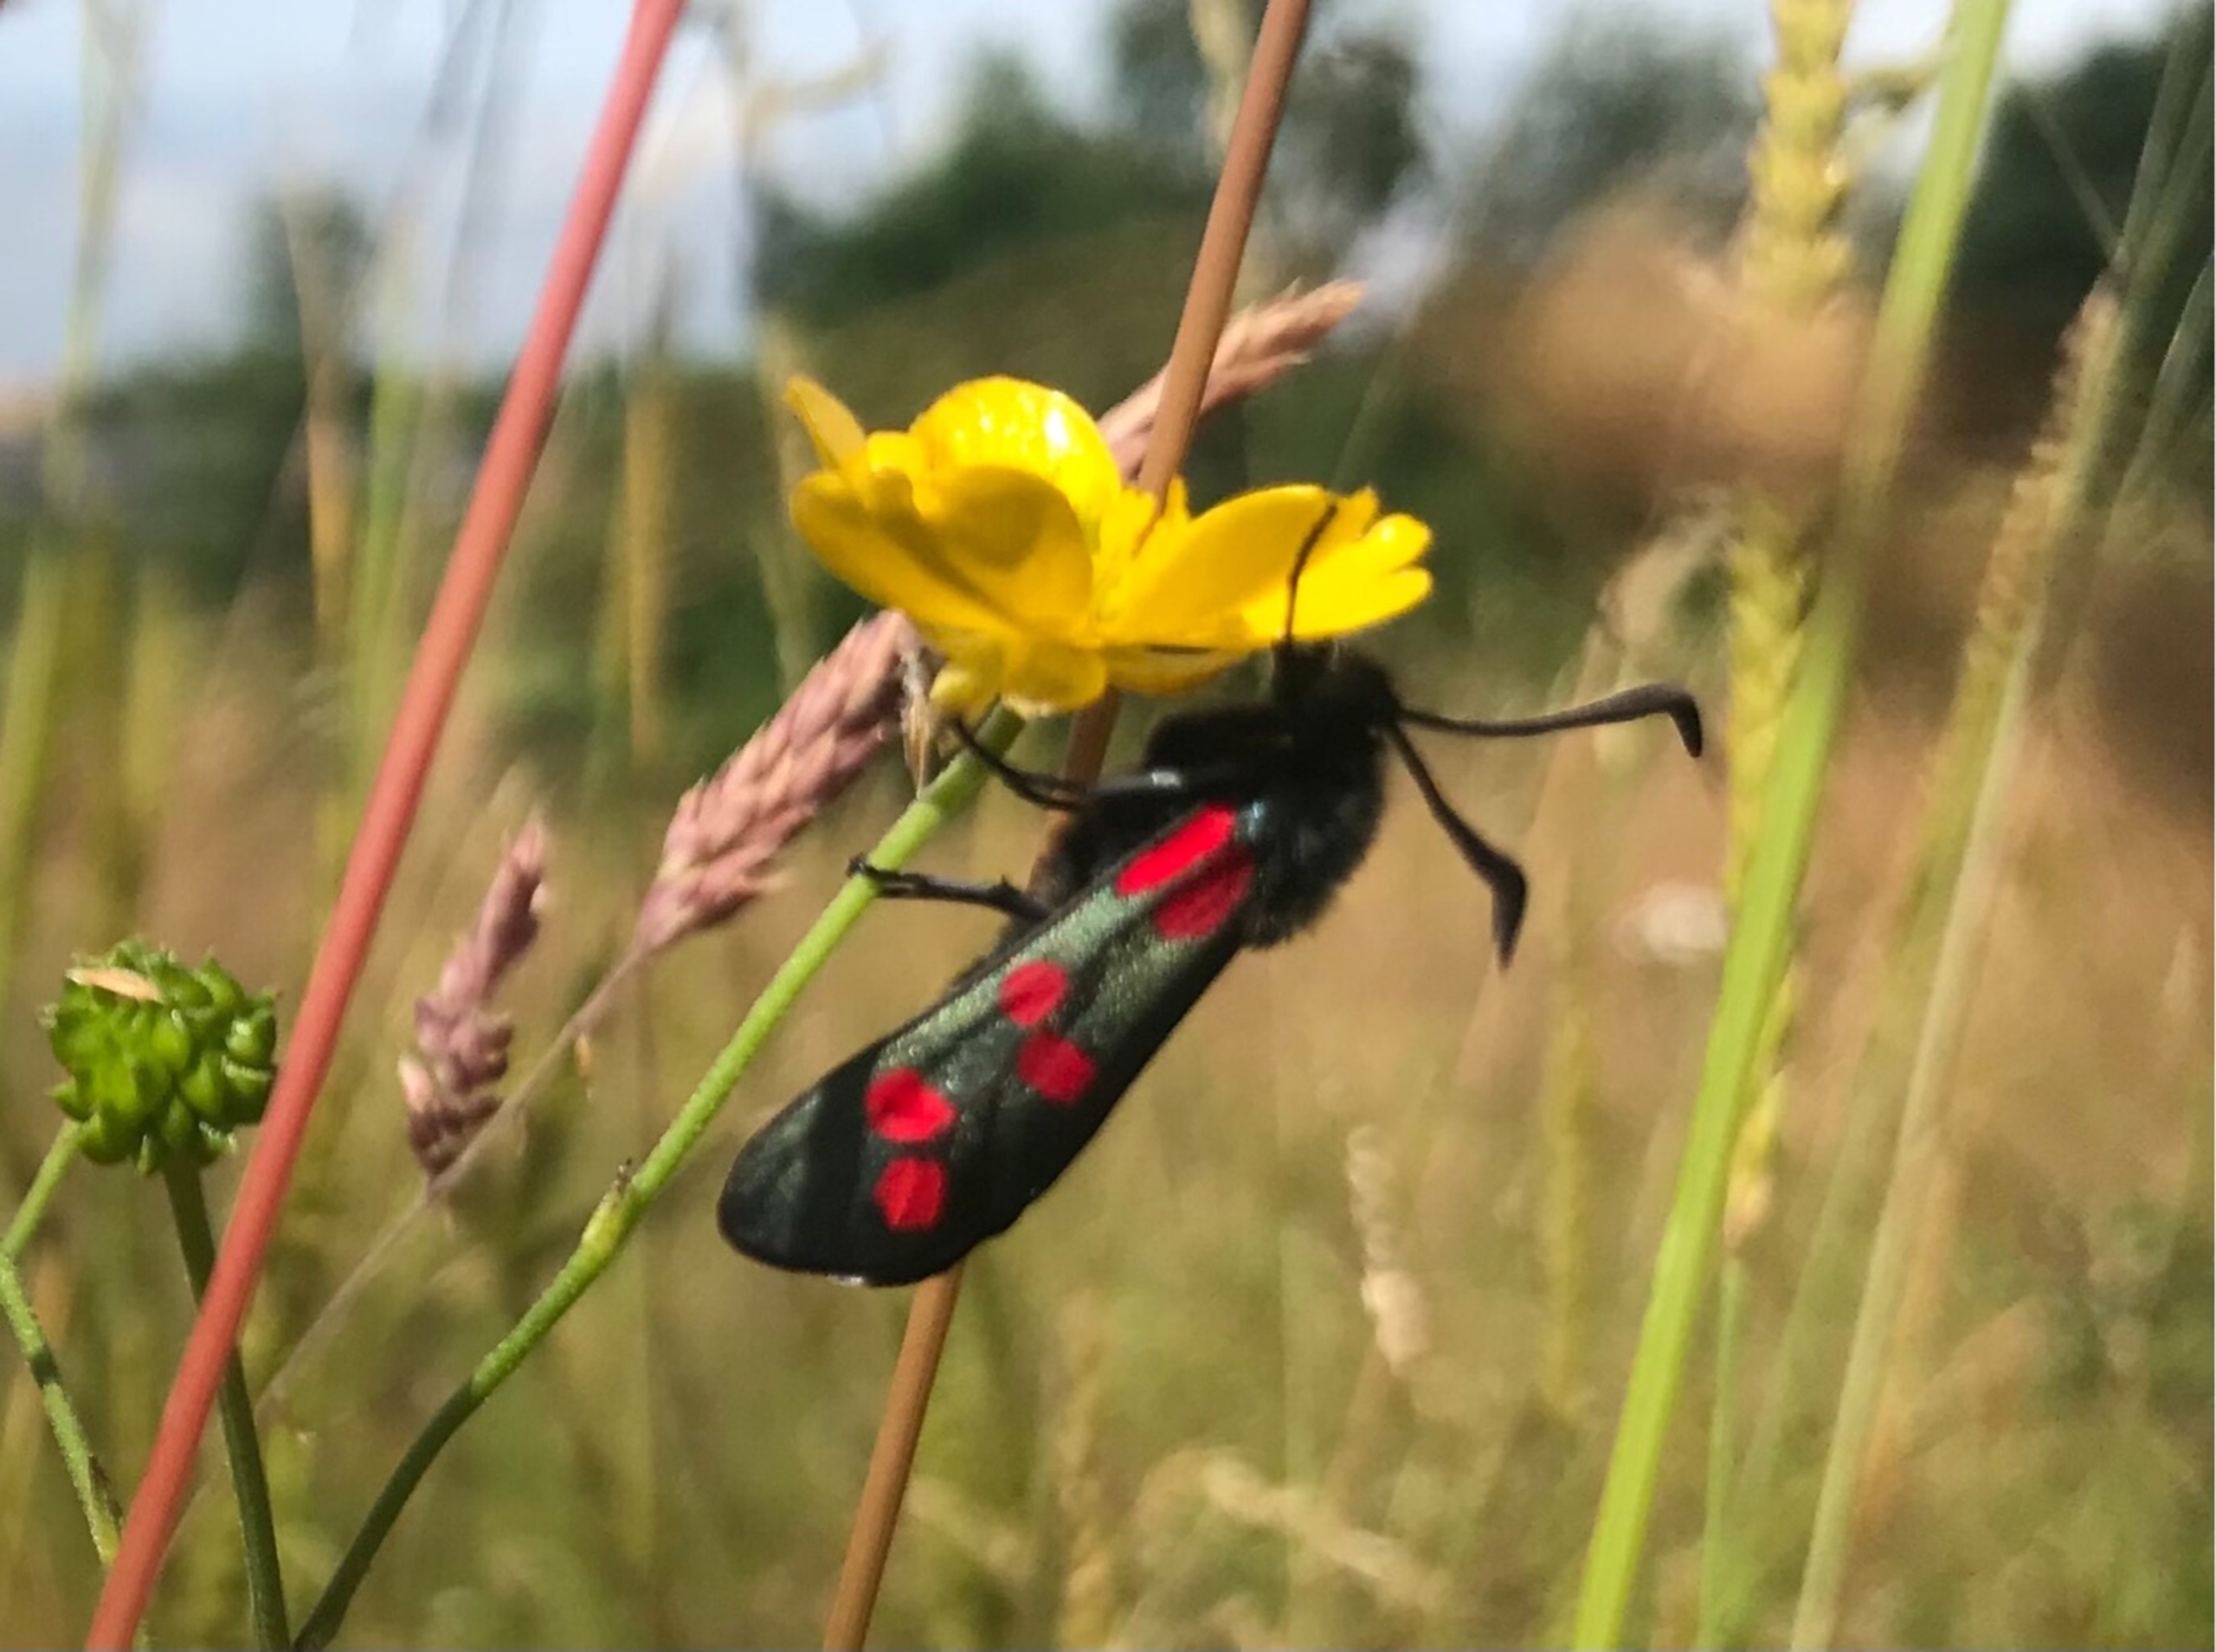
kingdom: Animalia
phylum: Arthropoda
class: Insecta
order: Lepidoptera
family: Zygaenidae
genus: Zygaena
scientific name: Zygaena filipendulae
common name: Seksplettet køllesværmer
